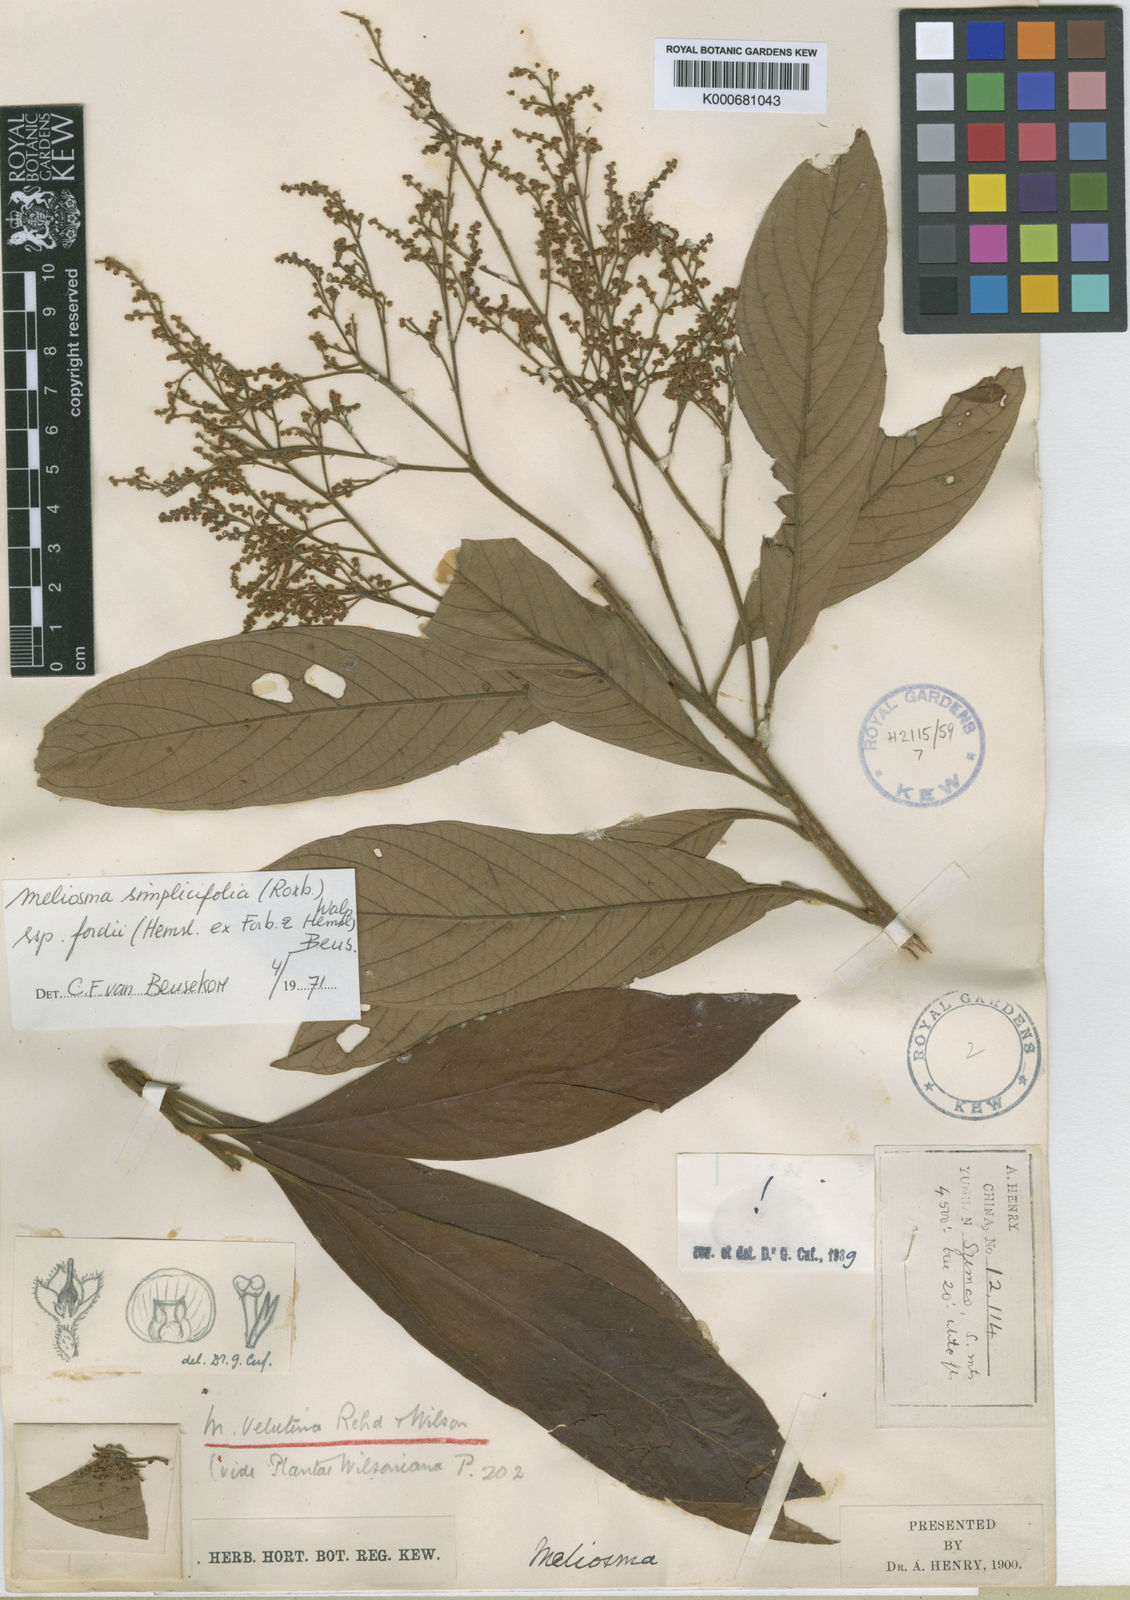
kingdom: Plantae
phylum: Tracheophyta
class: Magnoliopsida
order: Proteales
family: Sabiaceae
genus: Meliosma
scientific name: Meliosma fordii
